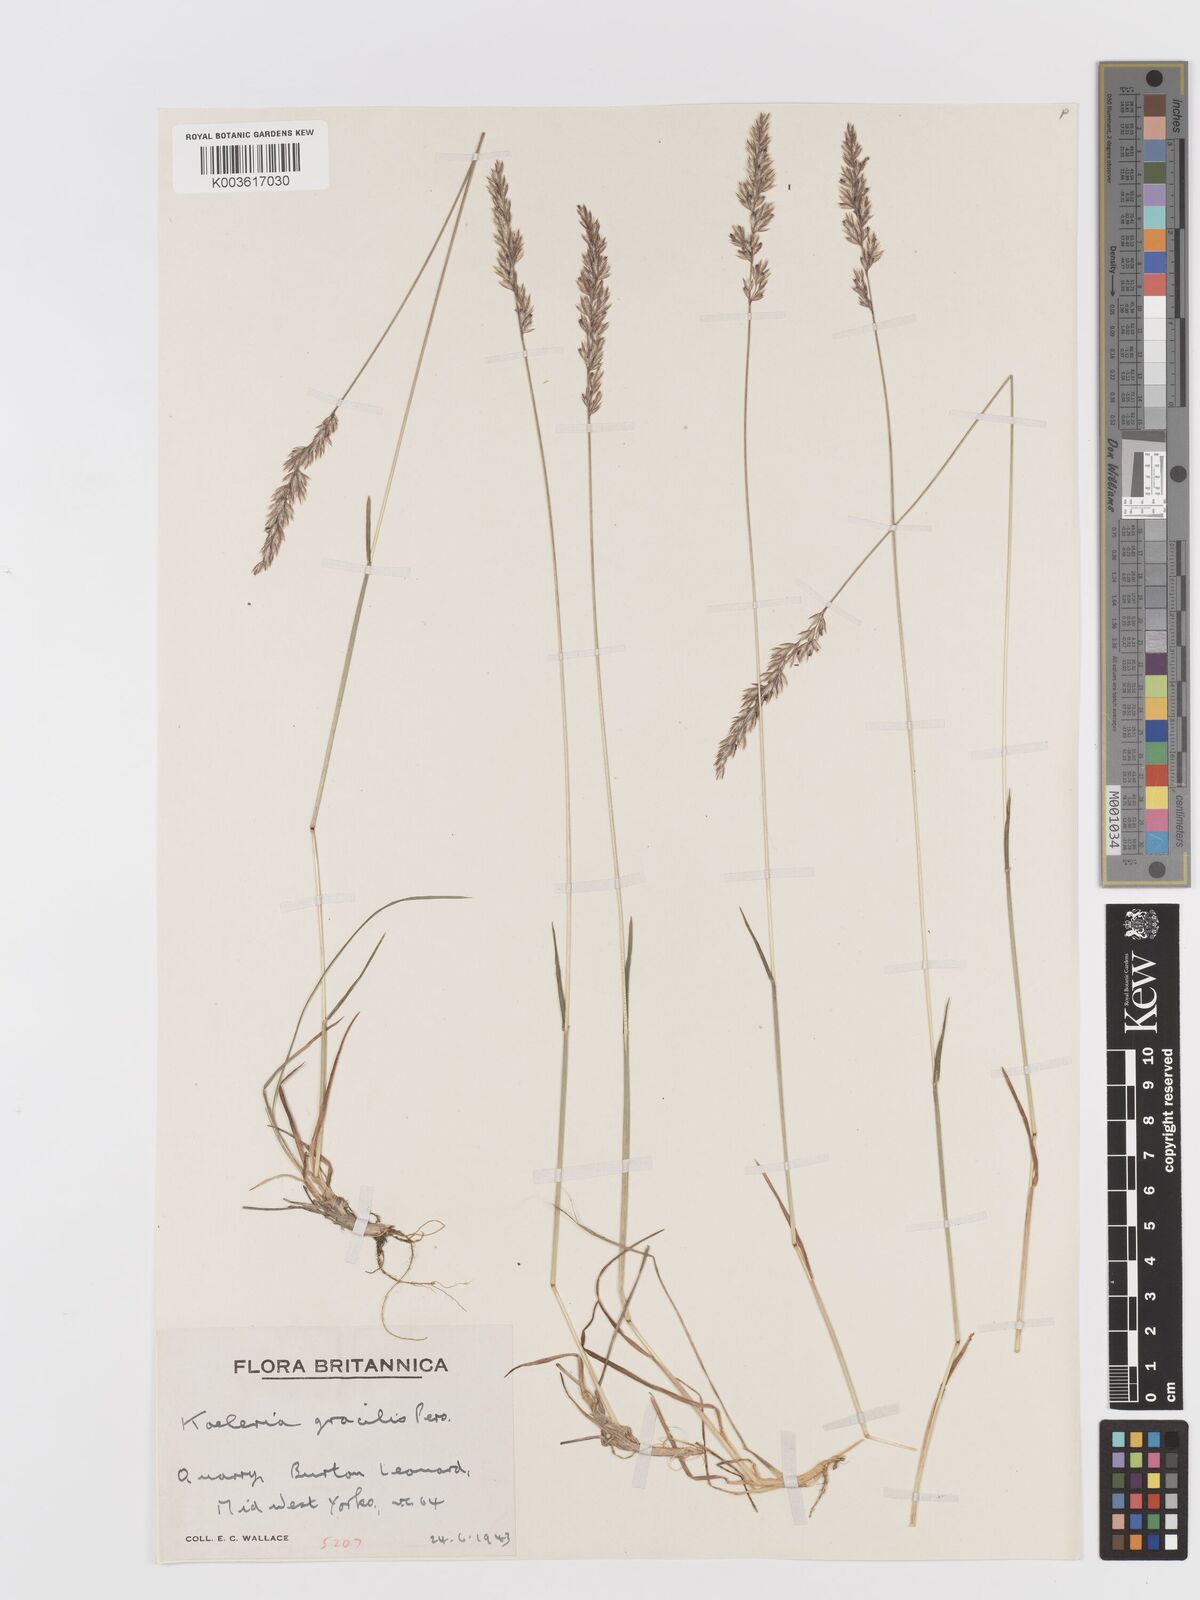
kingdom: Plantae
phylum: Tracheophyta
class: Liliopsida
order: Poales
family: Poaceae
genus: Koeleria
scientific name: Koeleria macrantha
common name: Crested hair-grass
